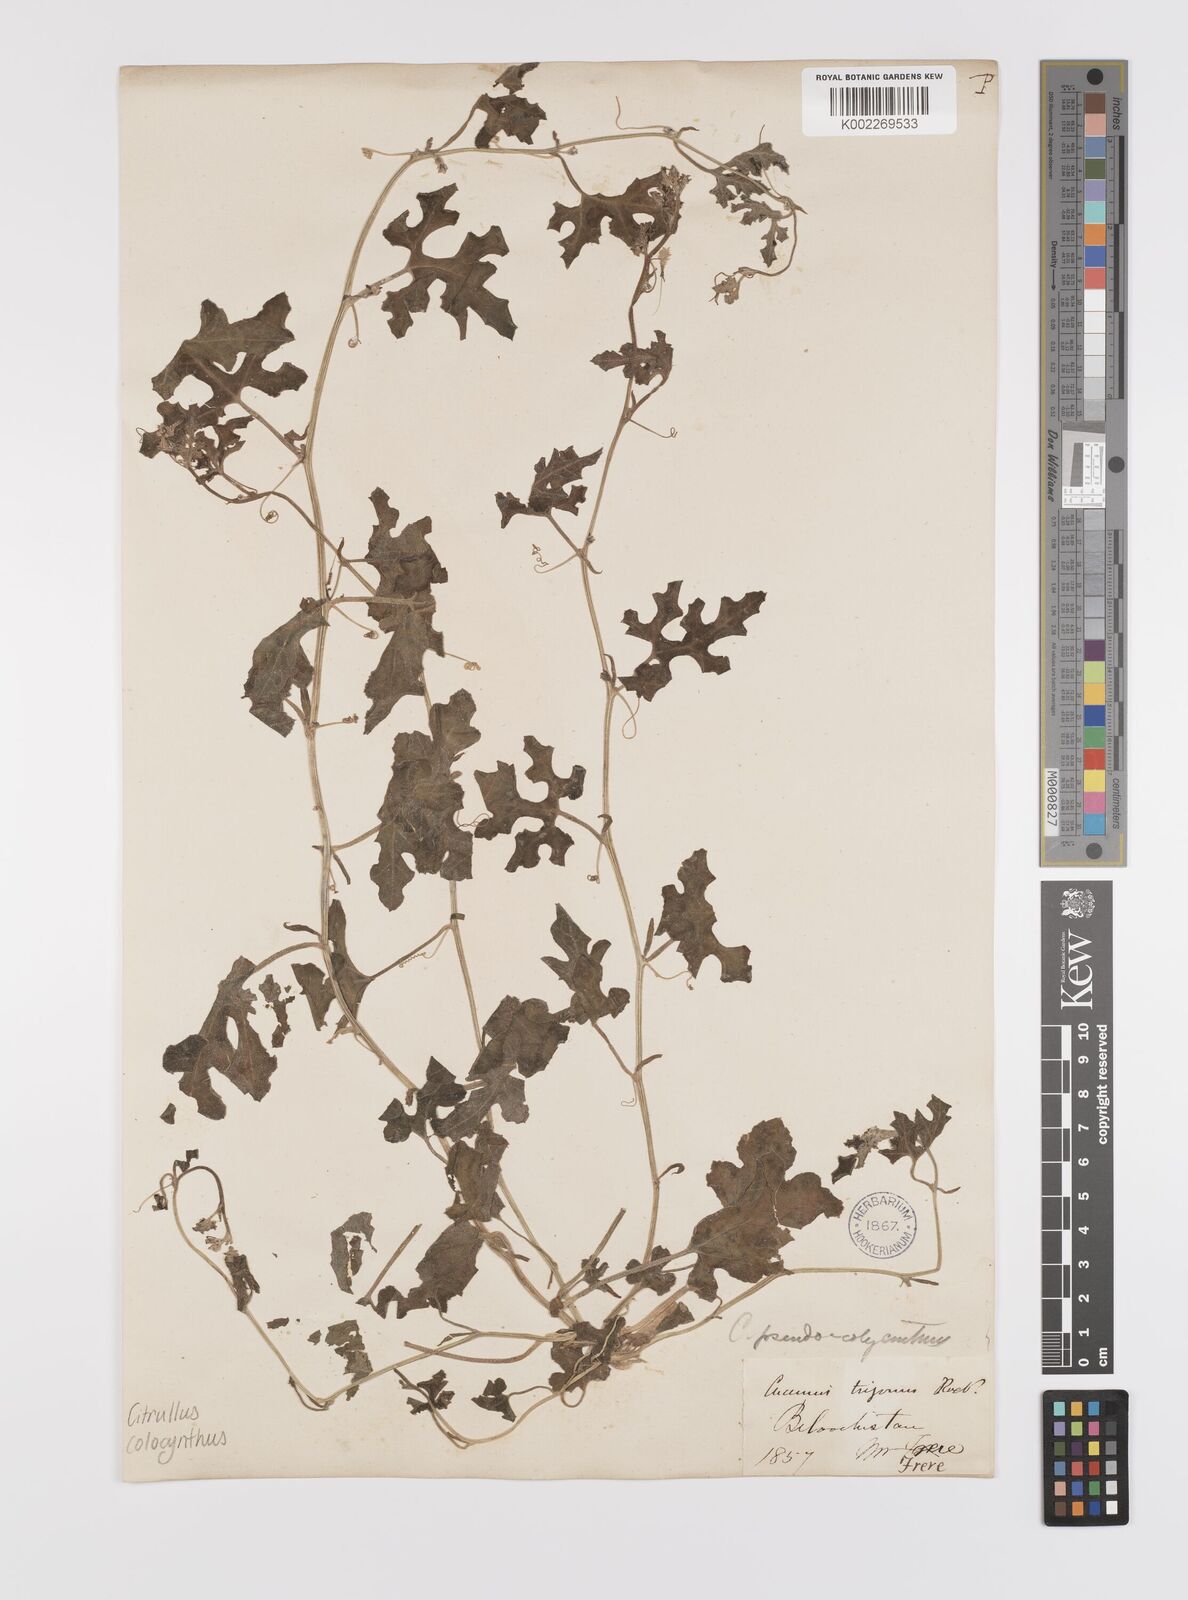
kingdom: Plantae
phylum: Tracheophyta
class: Magnoliopsida
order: Cucurbitales
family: Cucurbitaceae
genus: Citrullus
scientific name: Citrullus colocynthis
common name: Colocynth
